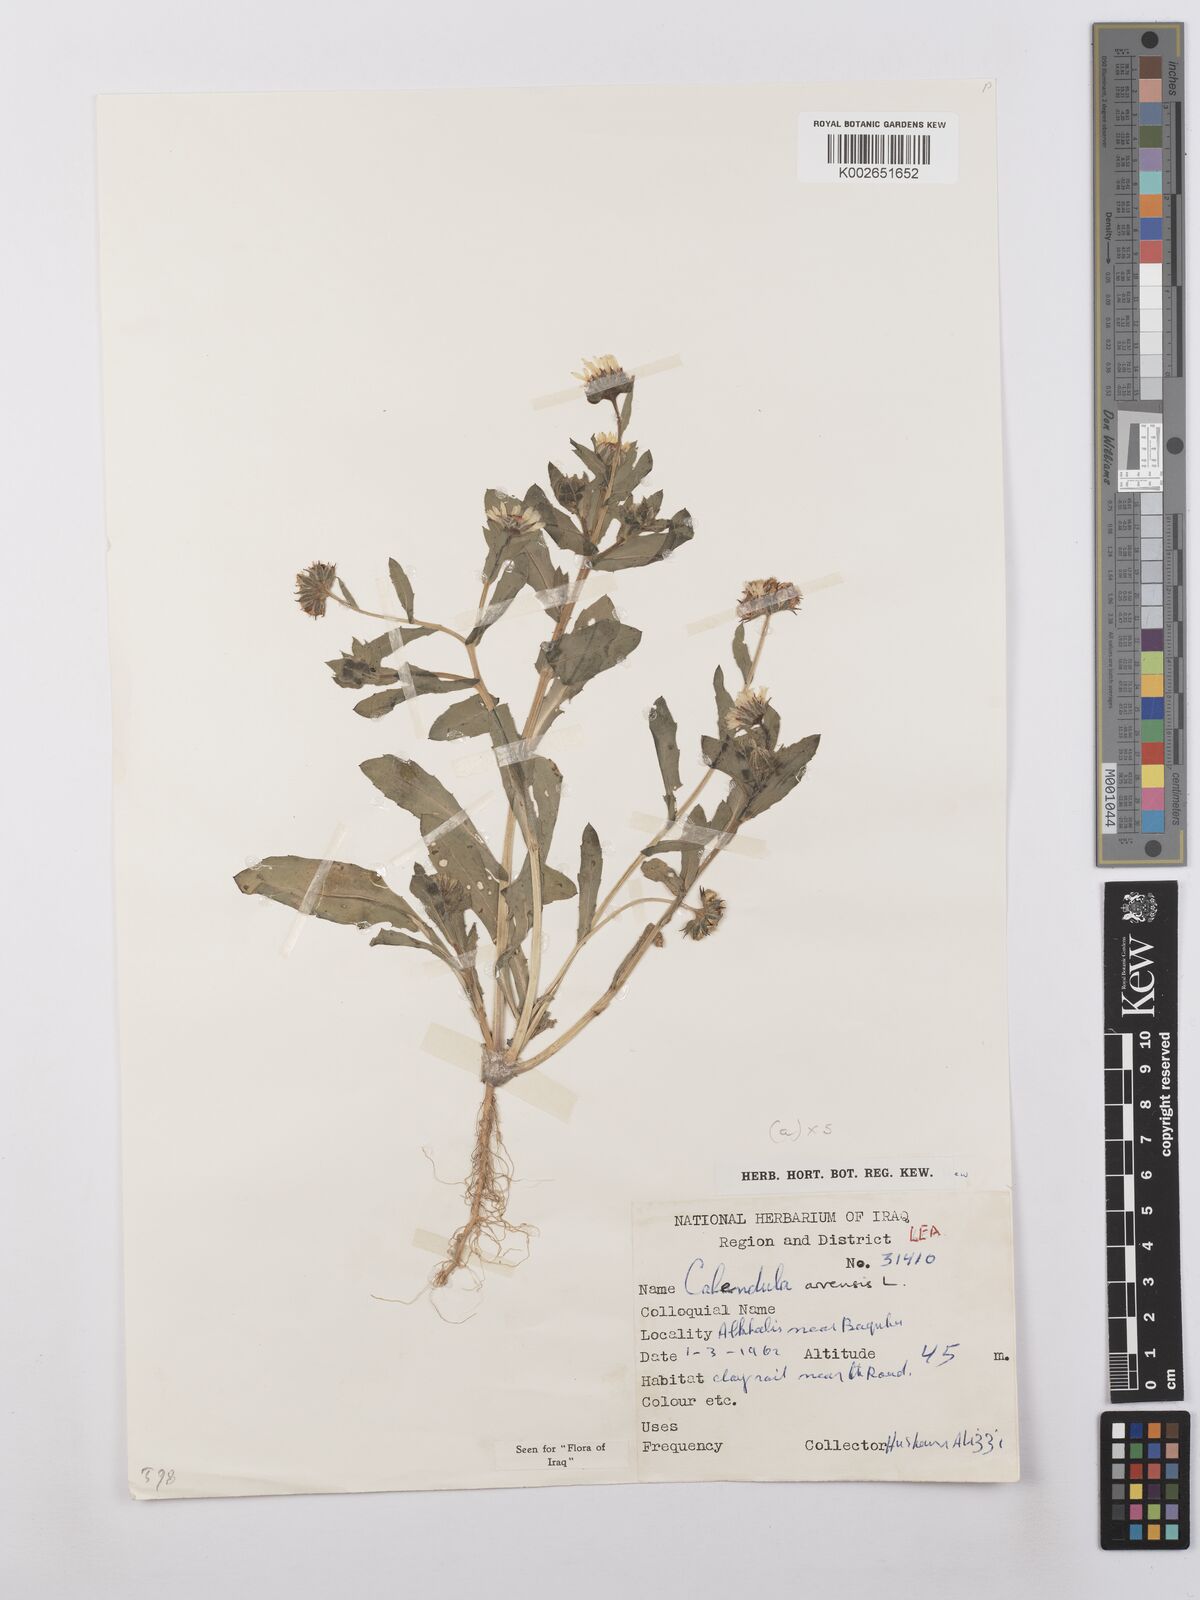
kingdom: Plantae
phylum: Tracheophyta
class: Magnoliopsida
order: Asterales
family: Asteraceae
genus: Calendula
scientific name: Calendula arvensis
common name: Field marigold
